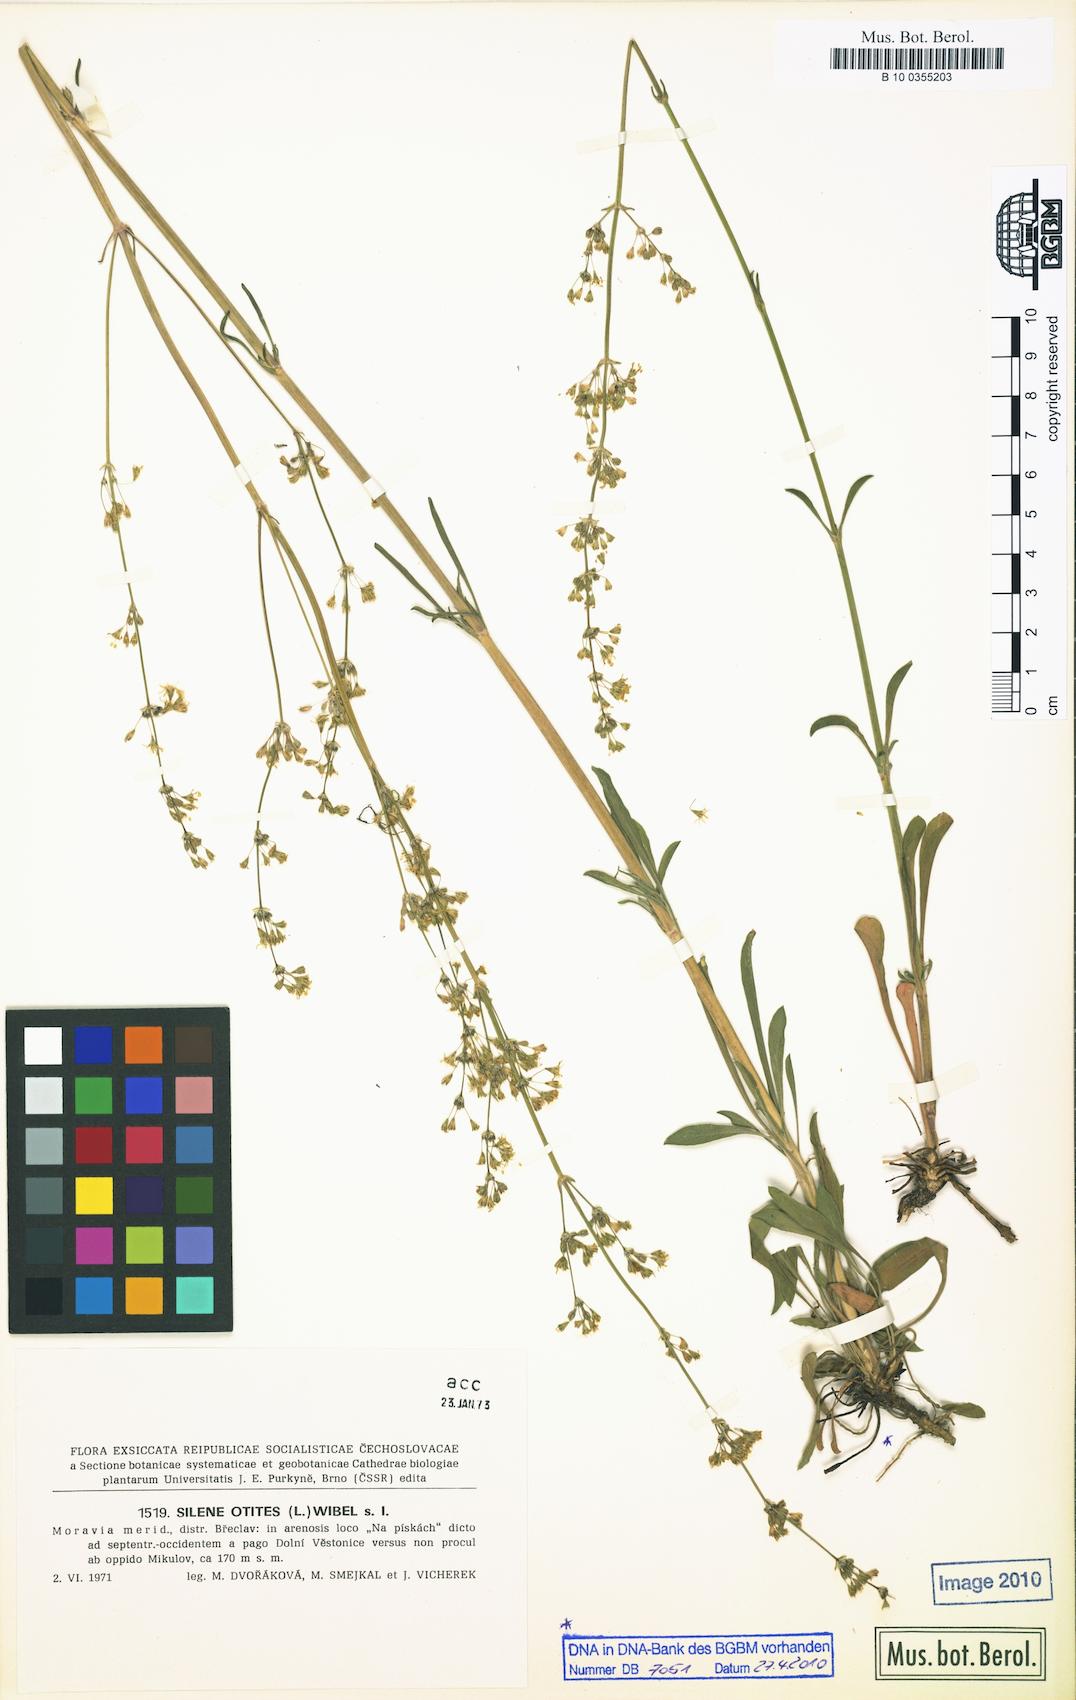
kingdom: Plantae
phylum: Tracheophyta
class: Magnoliopsida
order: Caryophyllales
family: Caryophyllaceae
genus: Silene
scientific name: Silene otites
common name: Spanish catchfly
